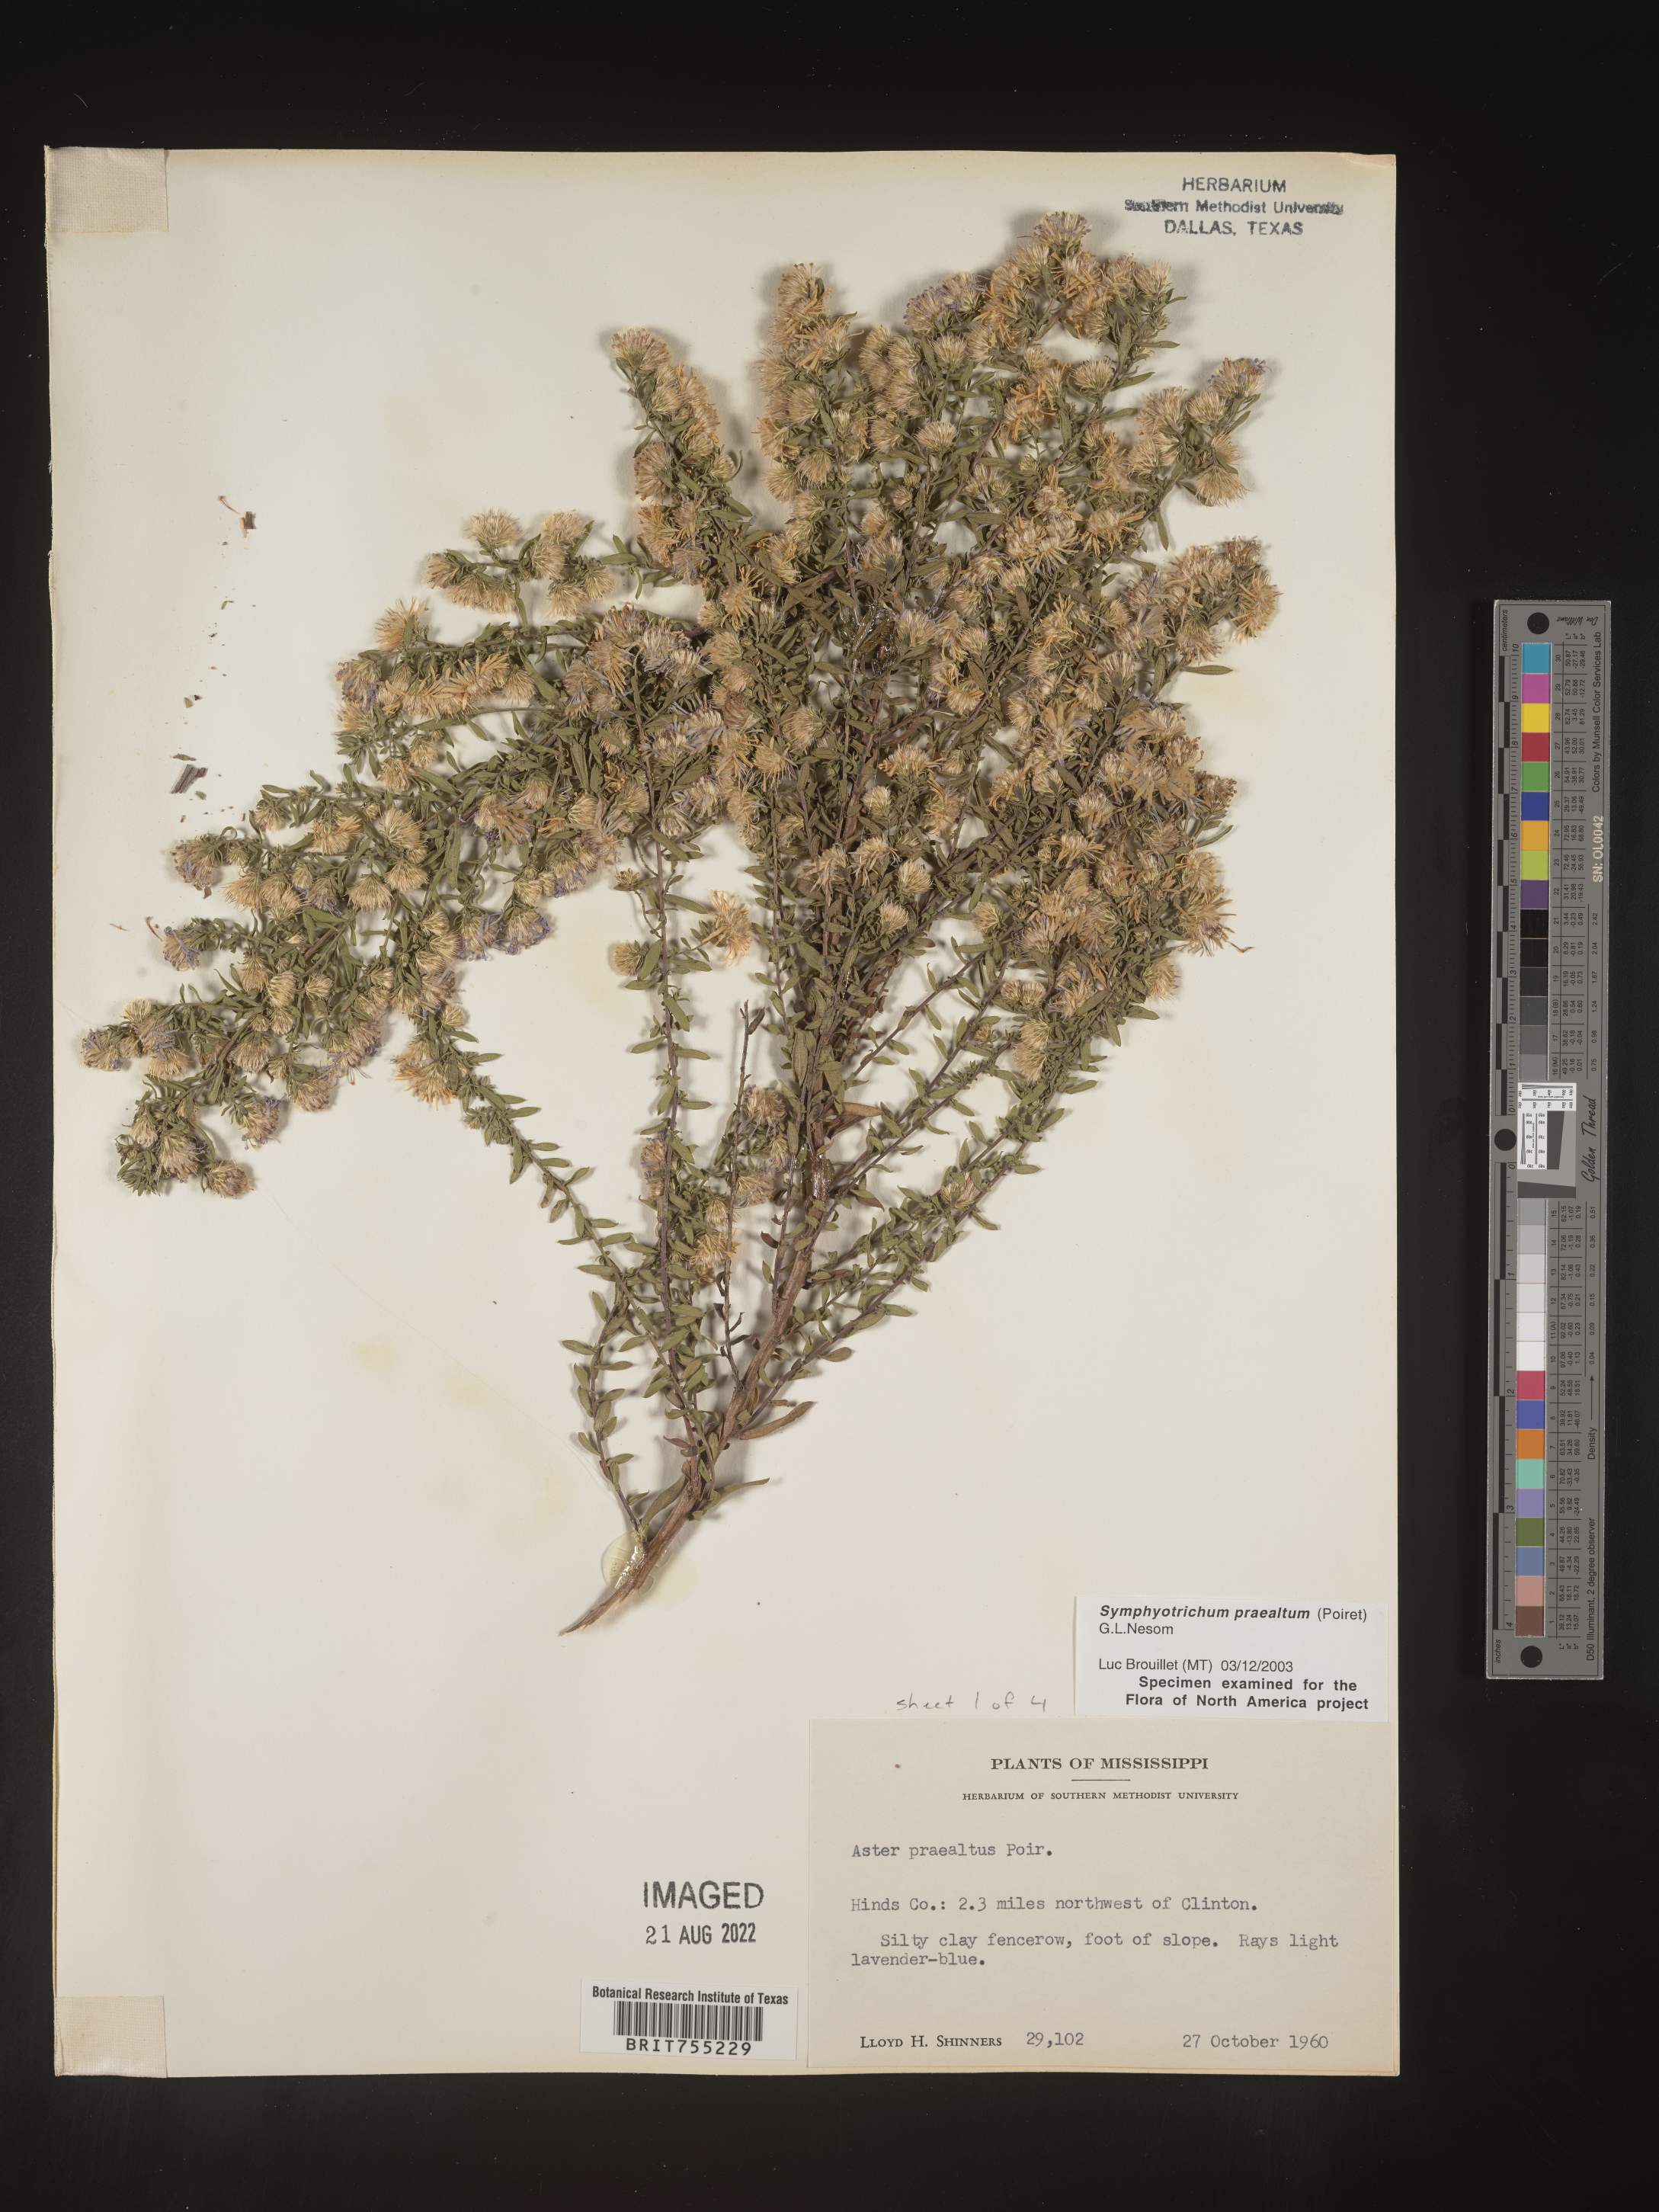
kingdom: Plantae
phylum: Tracheophyta
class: Magnoliopsida
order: Asterales
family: Asteraceae
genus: Symphyotrichum
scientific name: Symphyotrichum praealtum
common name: Willow aster
